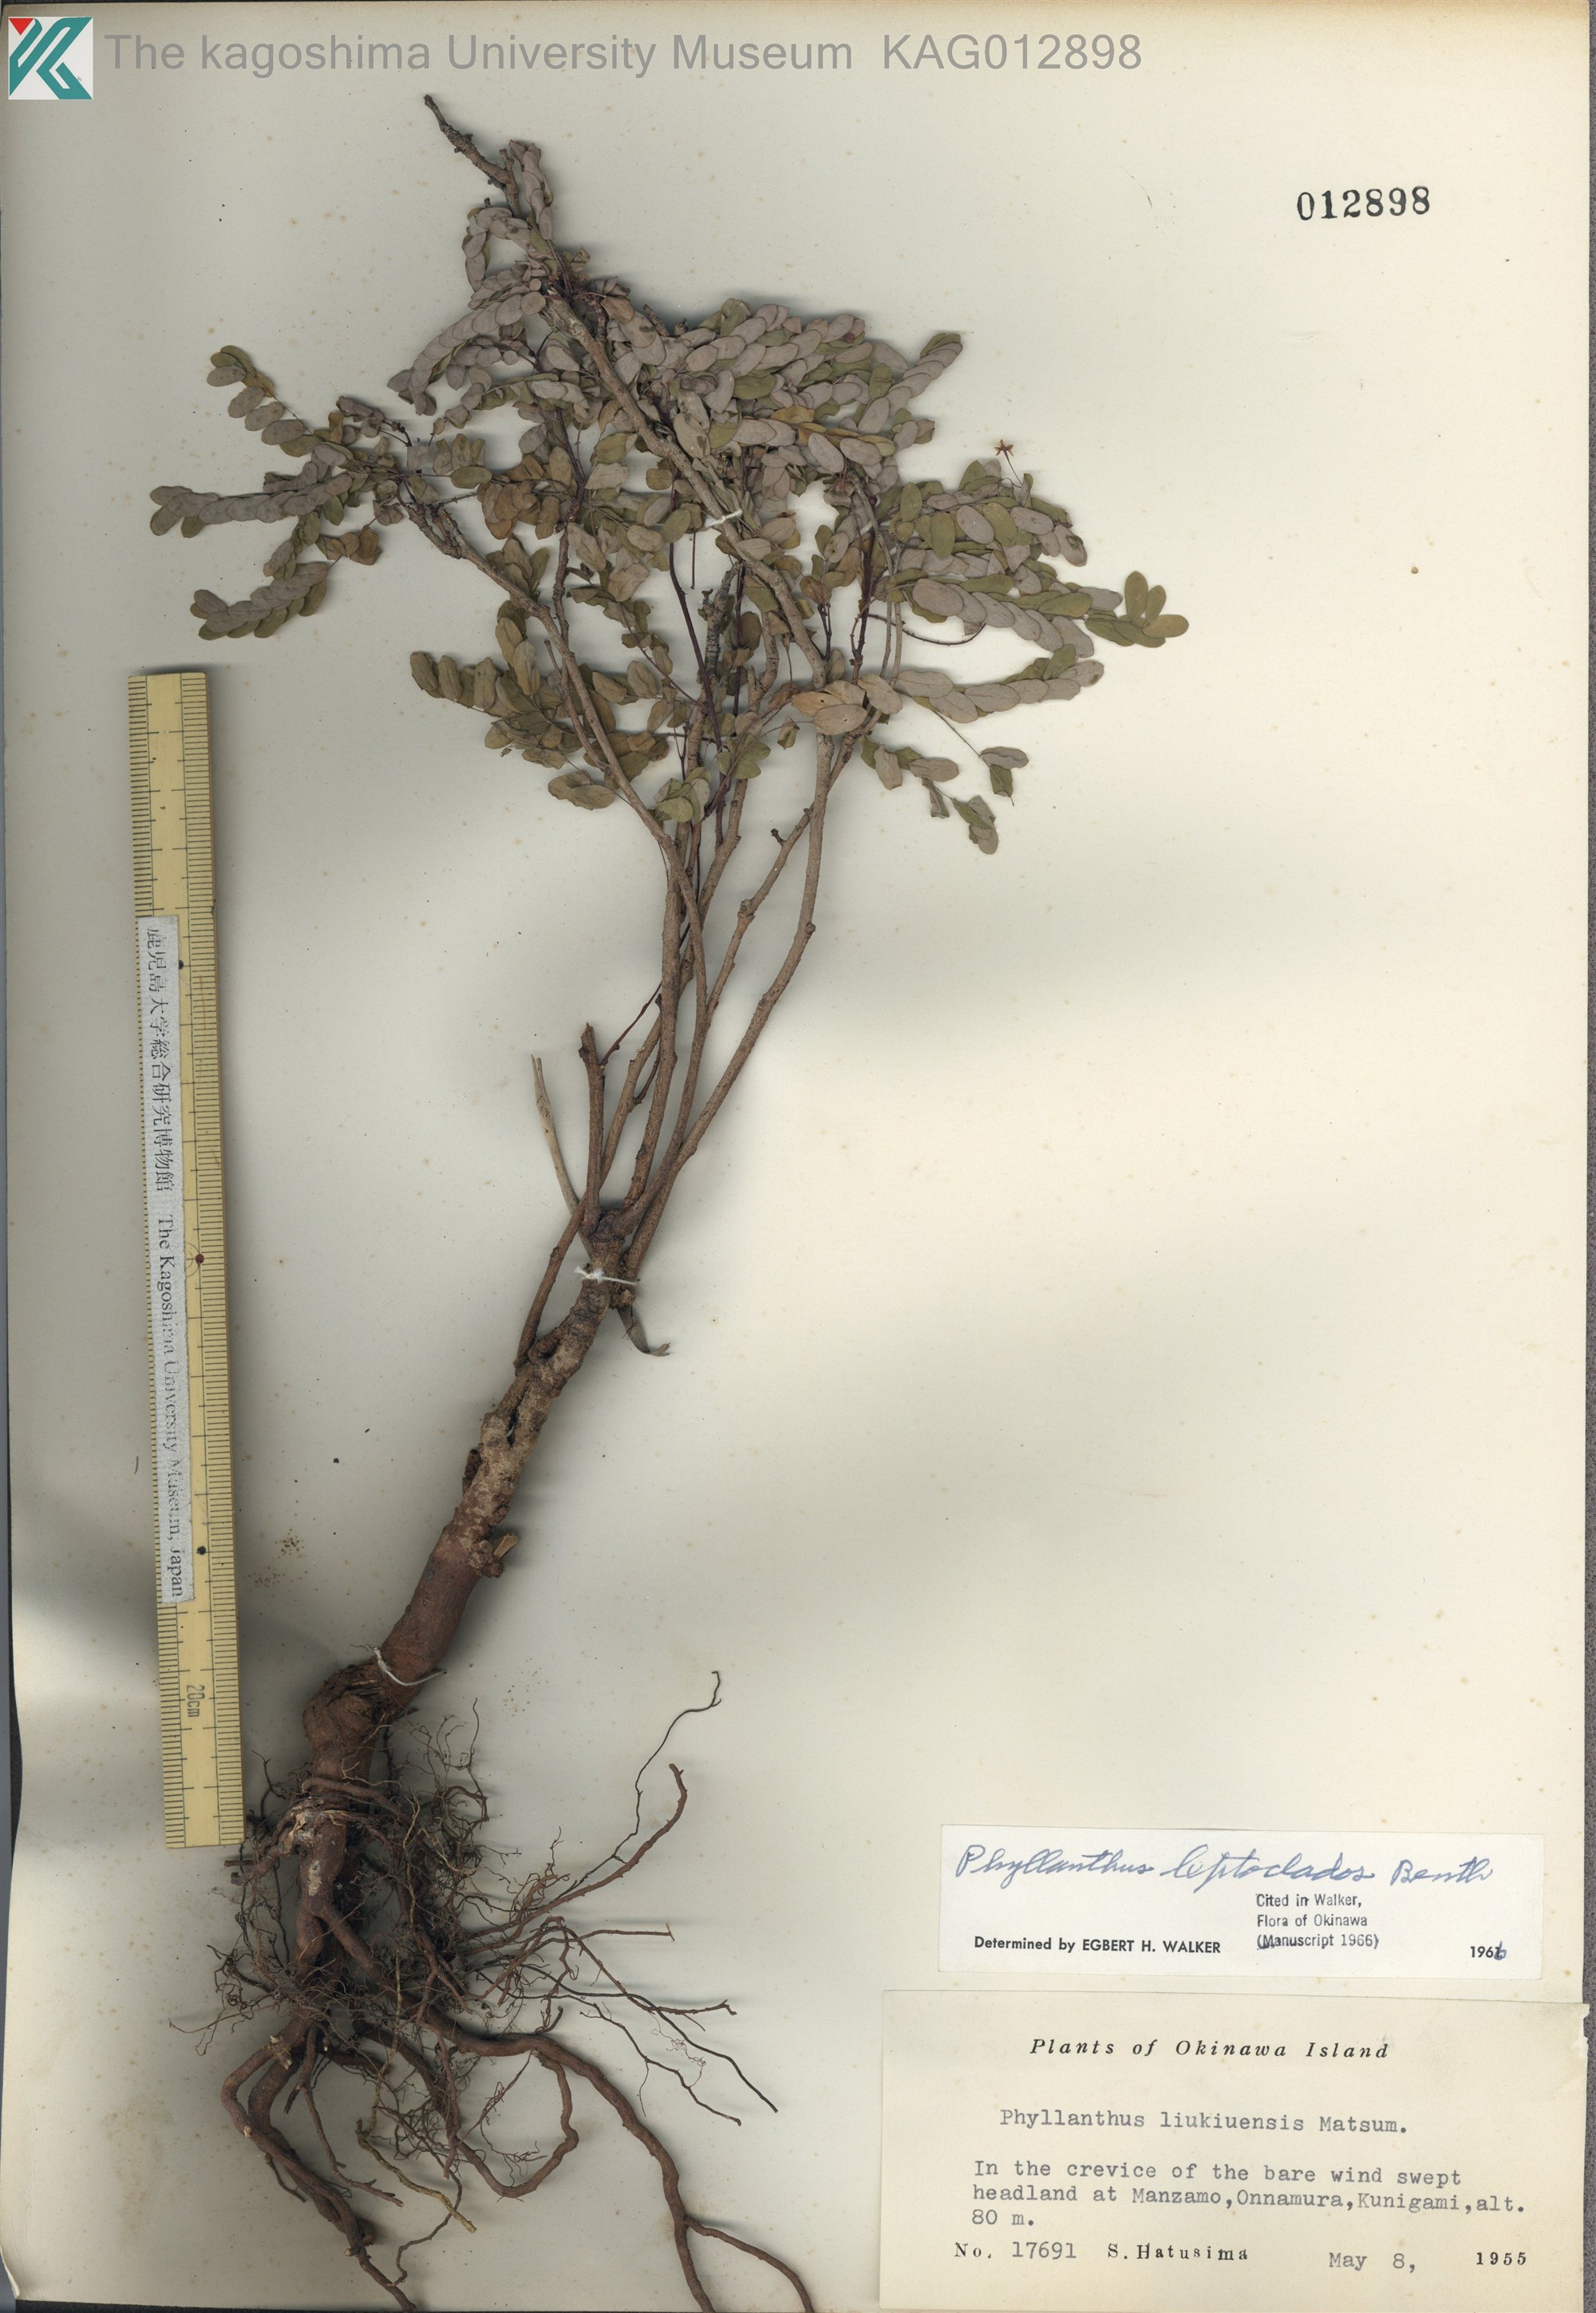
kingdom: Plantae
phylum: Tracheophyta
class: Magnoliopsida
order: Malpighiales
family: Phyllanthaceae
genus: Phyllanthus
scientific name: Phyllanthus liukiuensis
